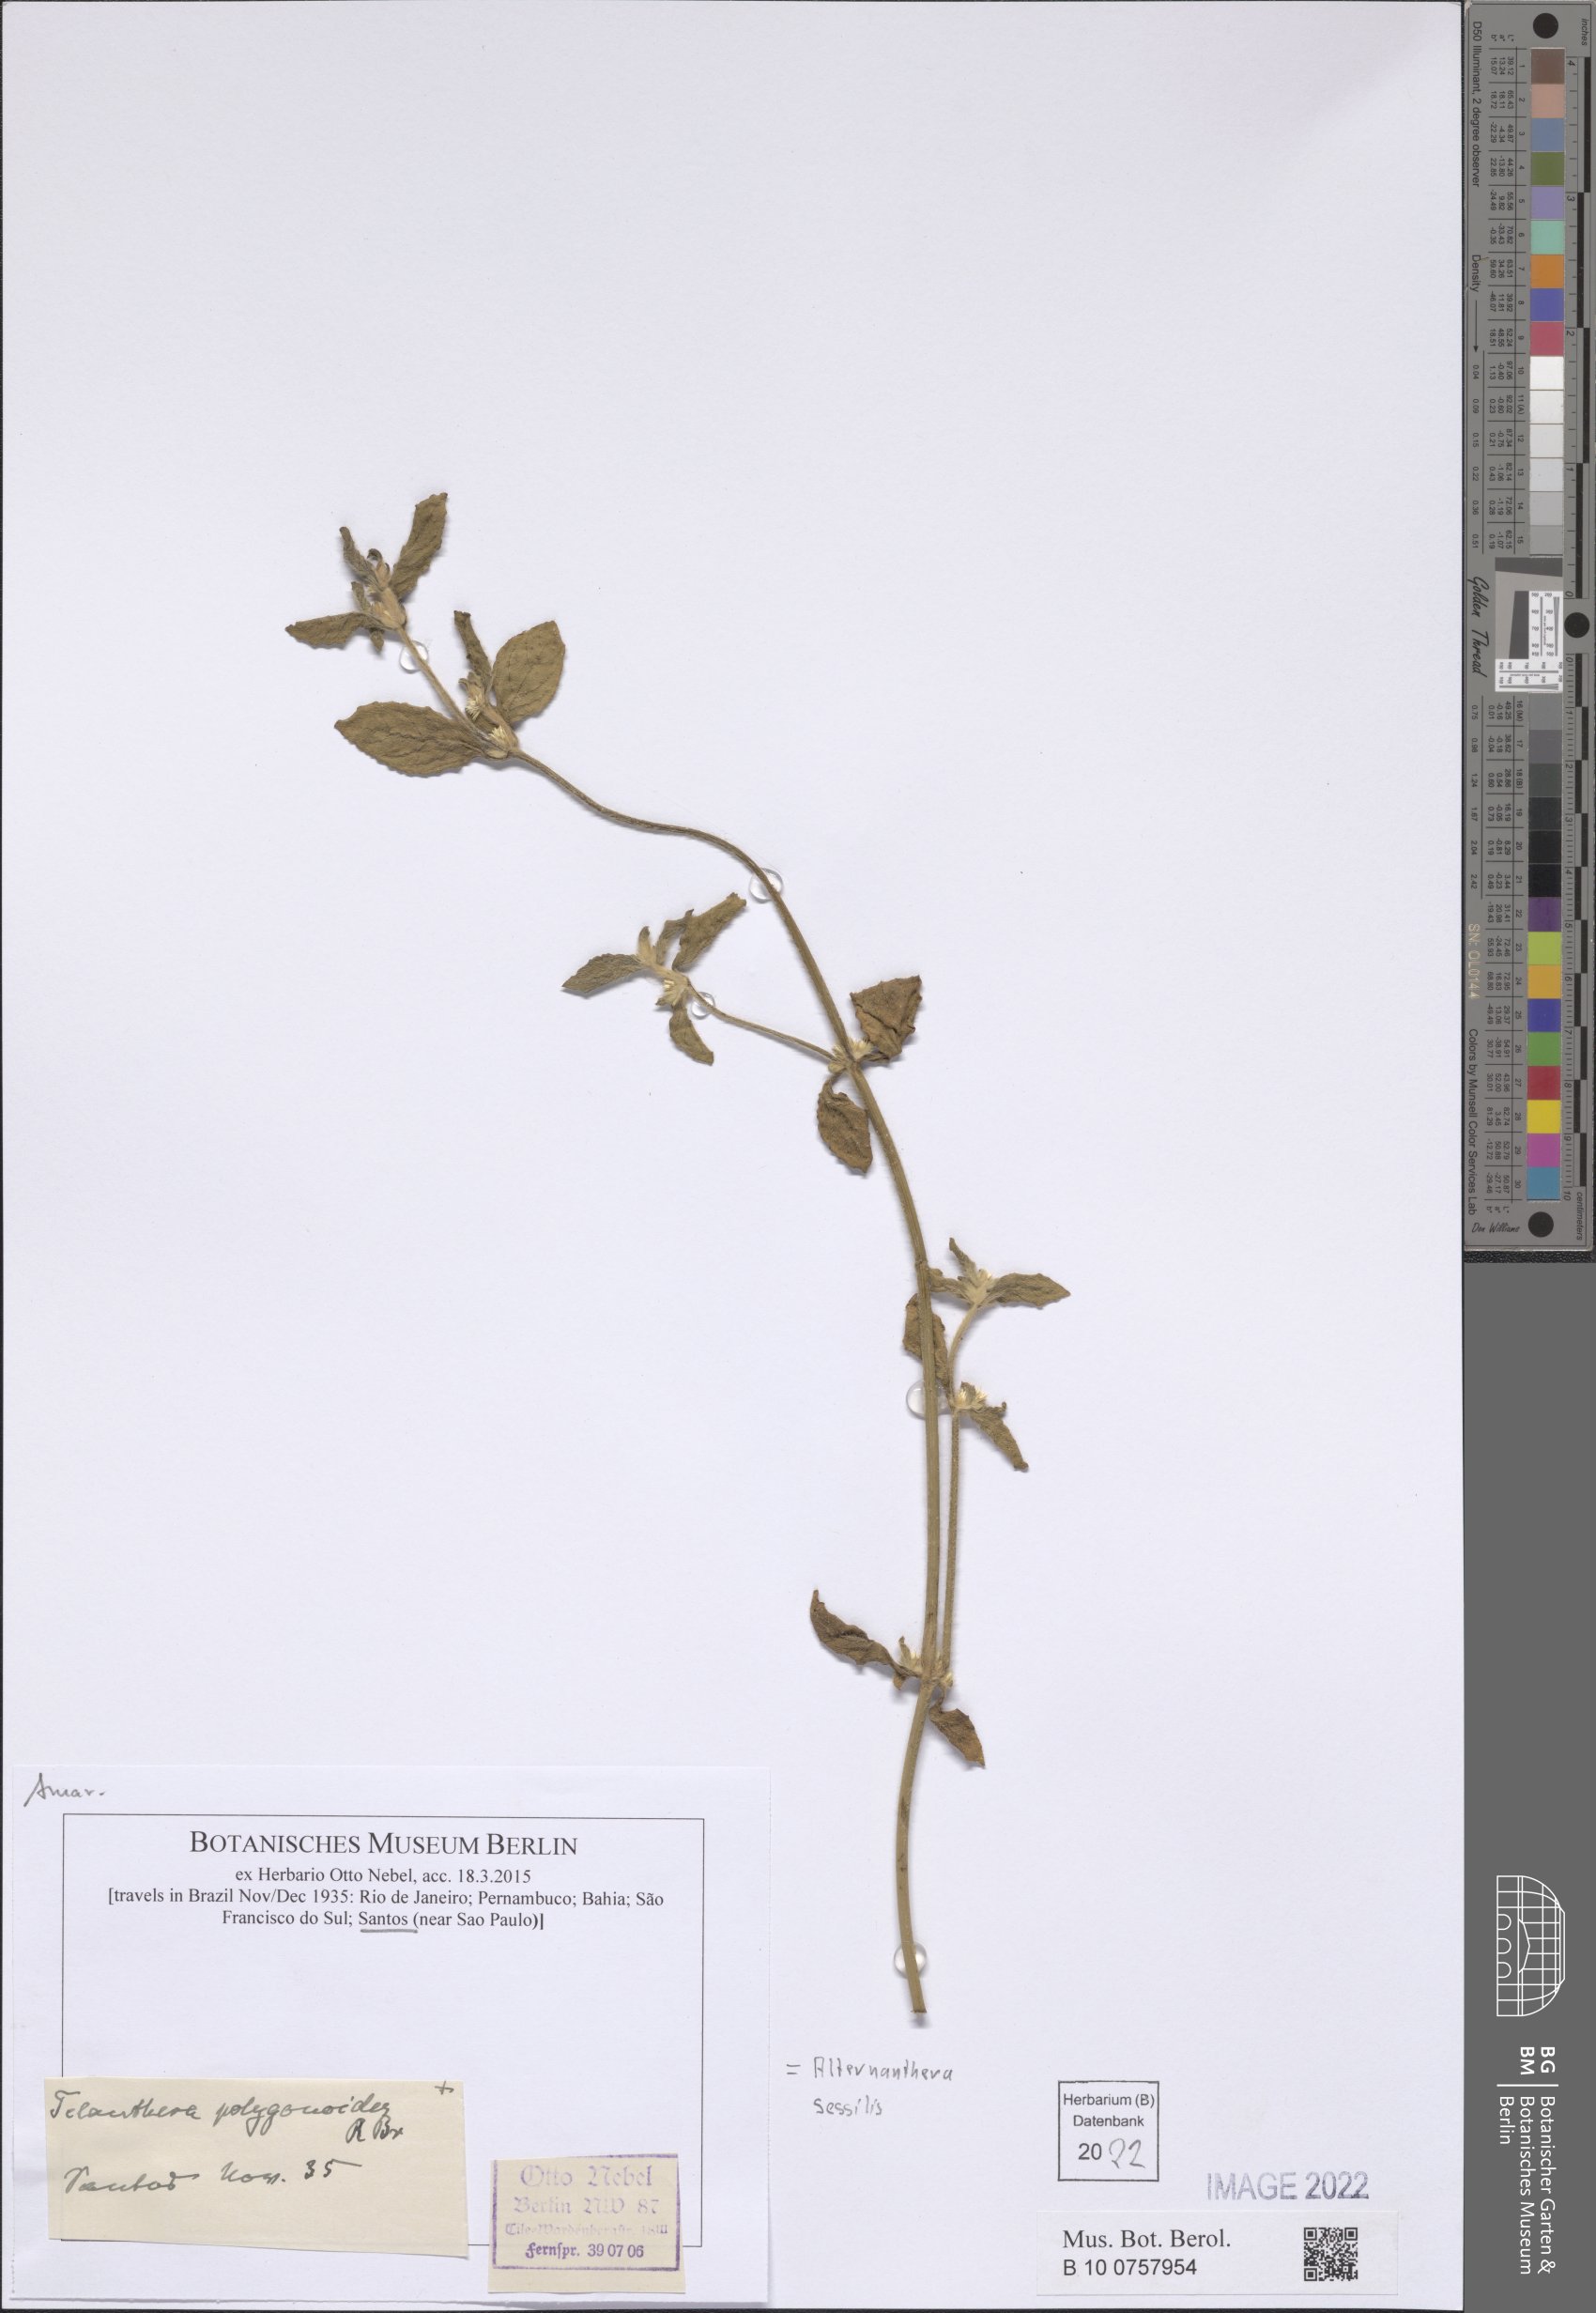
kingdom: Plantae
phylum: Tracheophyta
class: Magnoliopsida
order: Caryophyllales
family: Amaranthaceae
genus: Alternanthera
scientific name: Alternanthera sessilis
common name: Sessile joyweed
